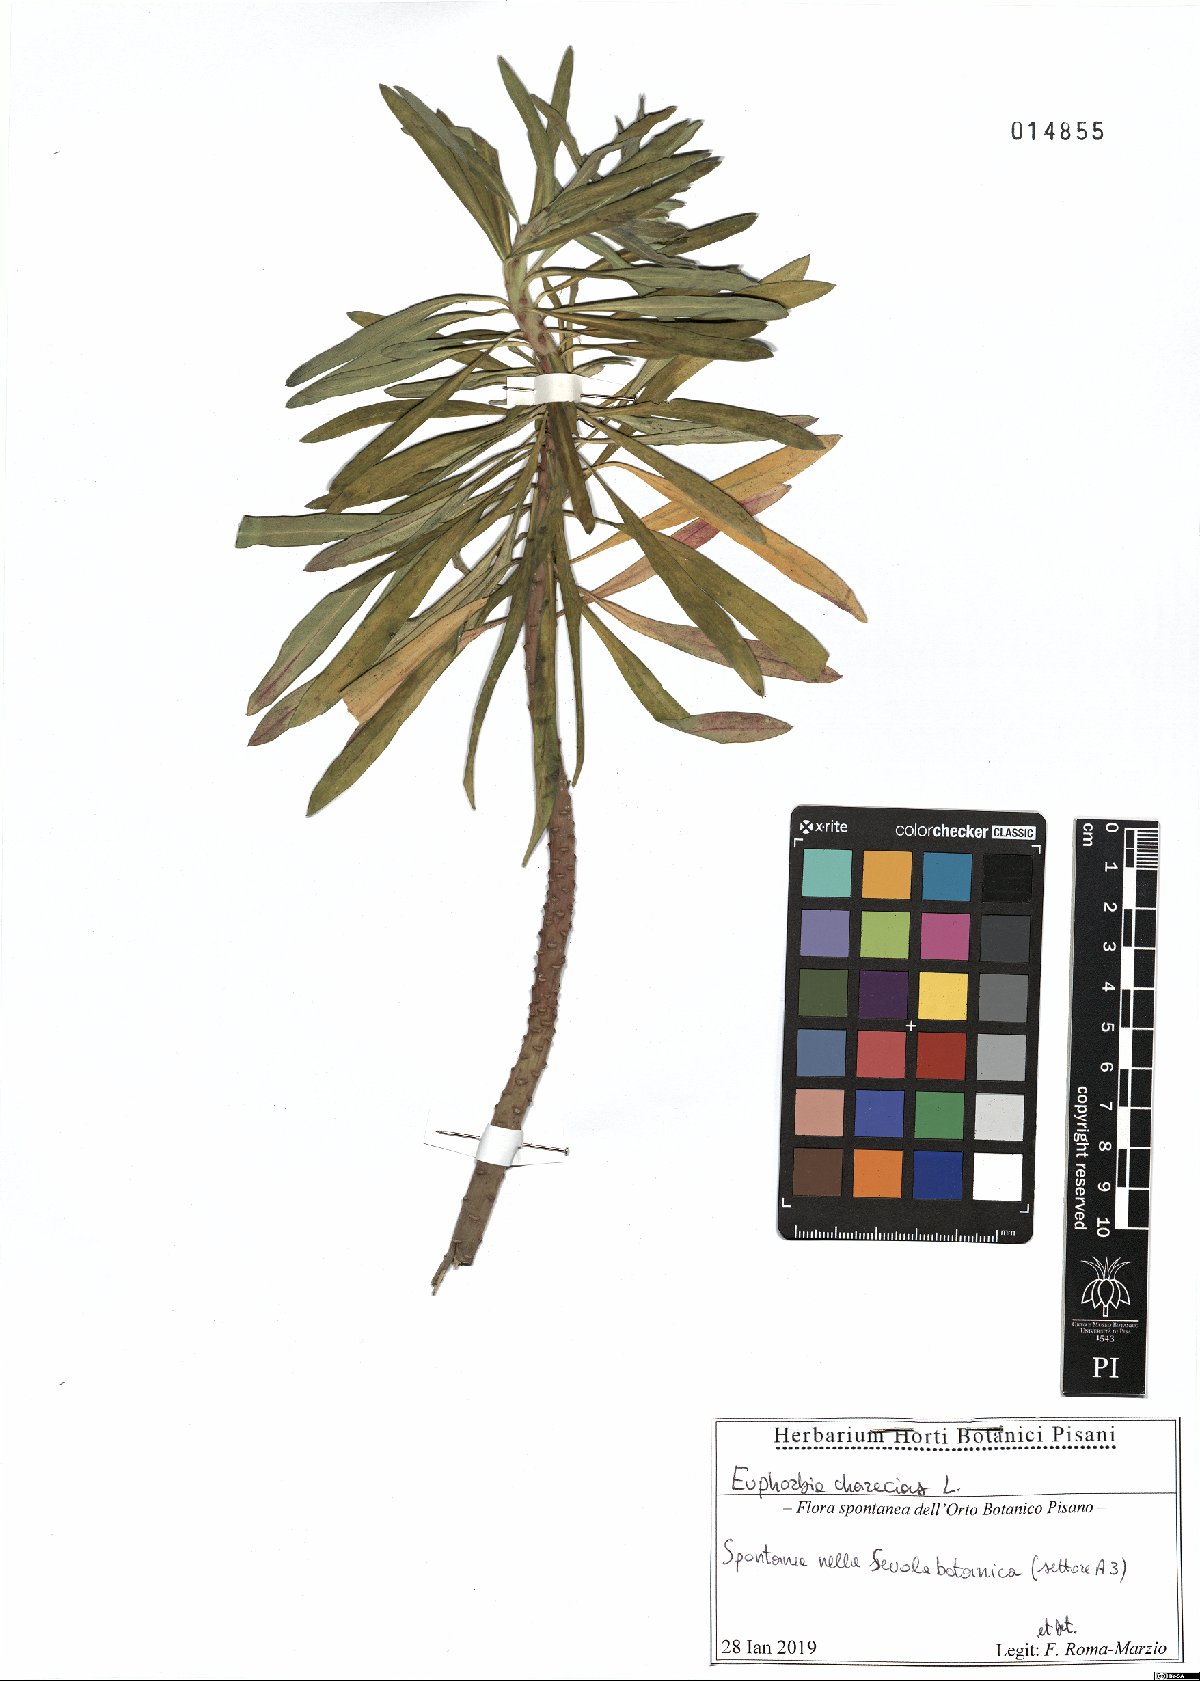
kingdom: Plantae
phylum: Tracheophyta
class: Magnoliopsida
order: Malpighiales
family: Euphorbiaceae
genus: Euphorbia
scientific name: Euphorbia characias
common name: Mediterranean spurge
